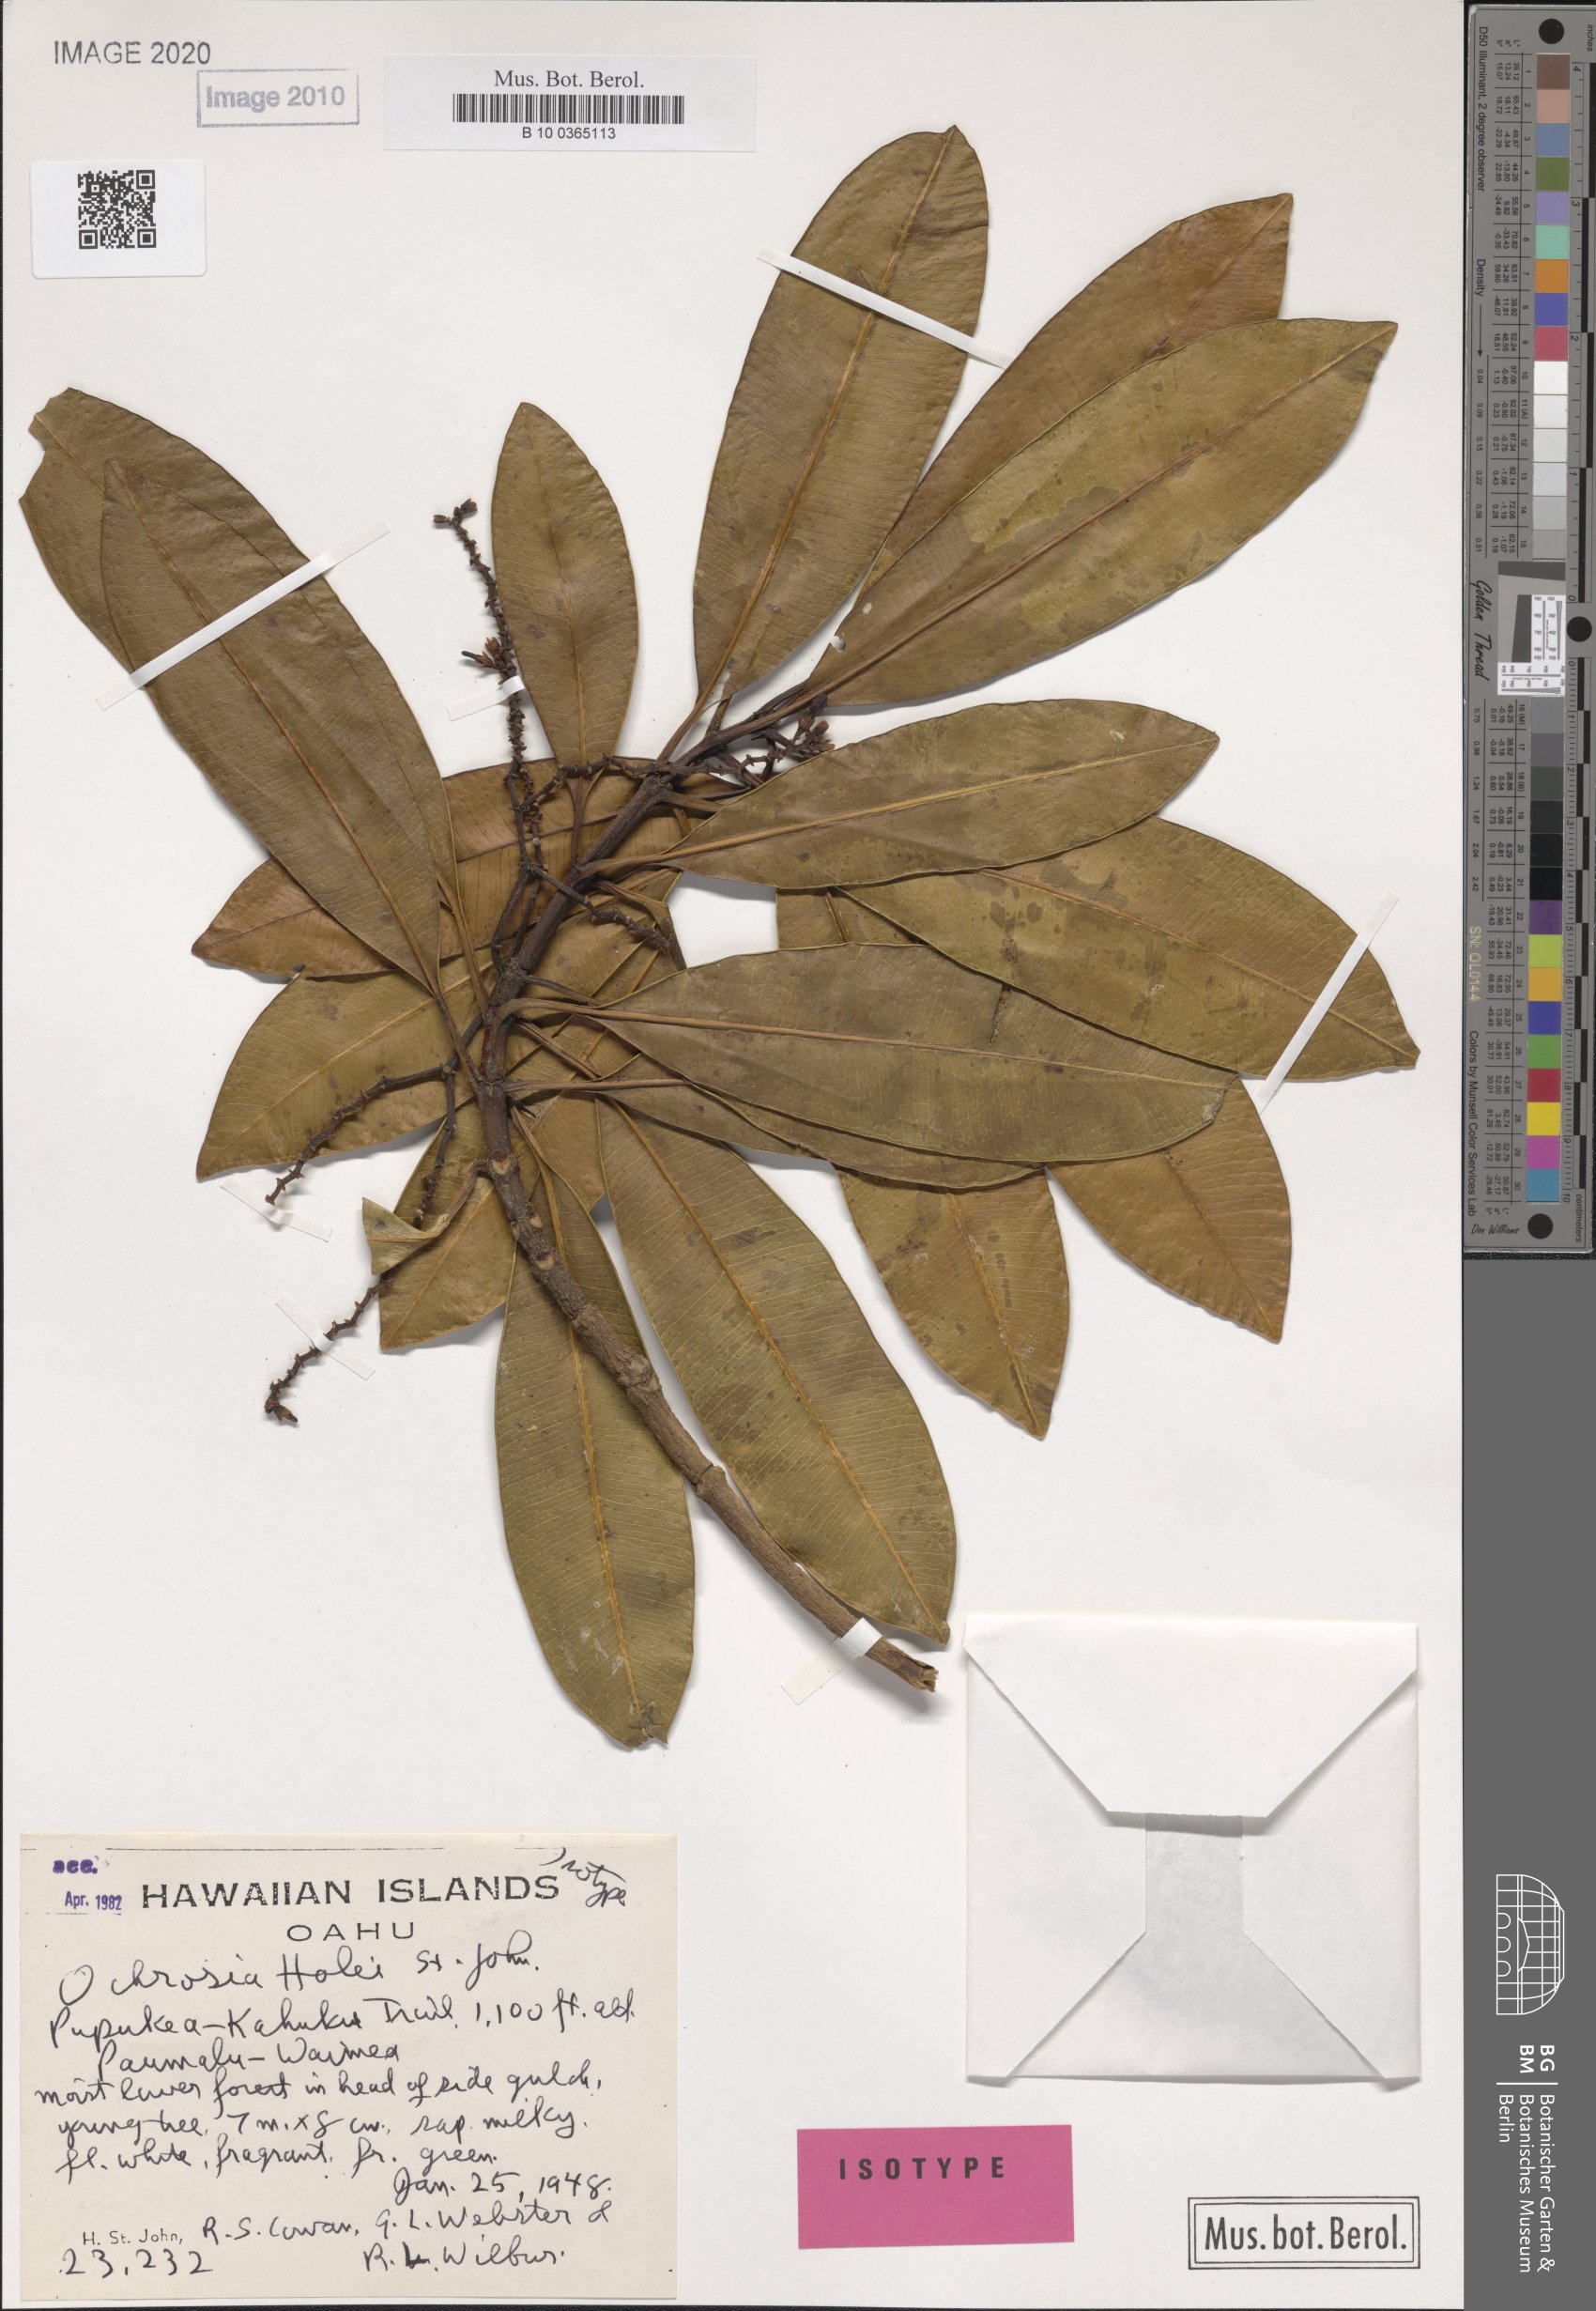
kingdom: Plantae
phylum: Tracheophyta
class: Magnoliopsida
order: Gentianales
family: Apocynaceae
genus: Ochrosia
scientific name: Ochrosia compta
